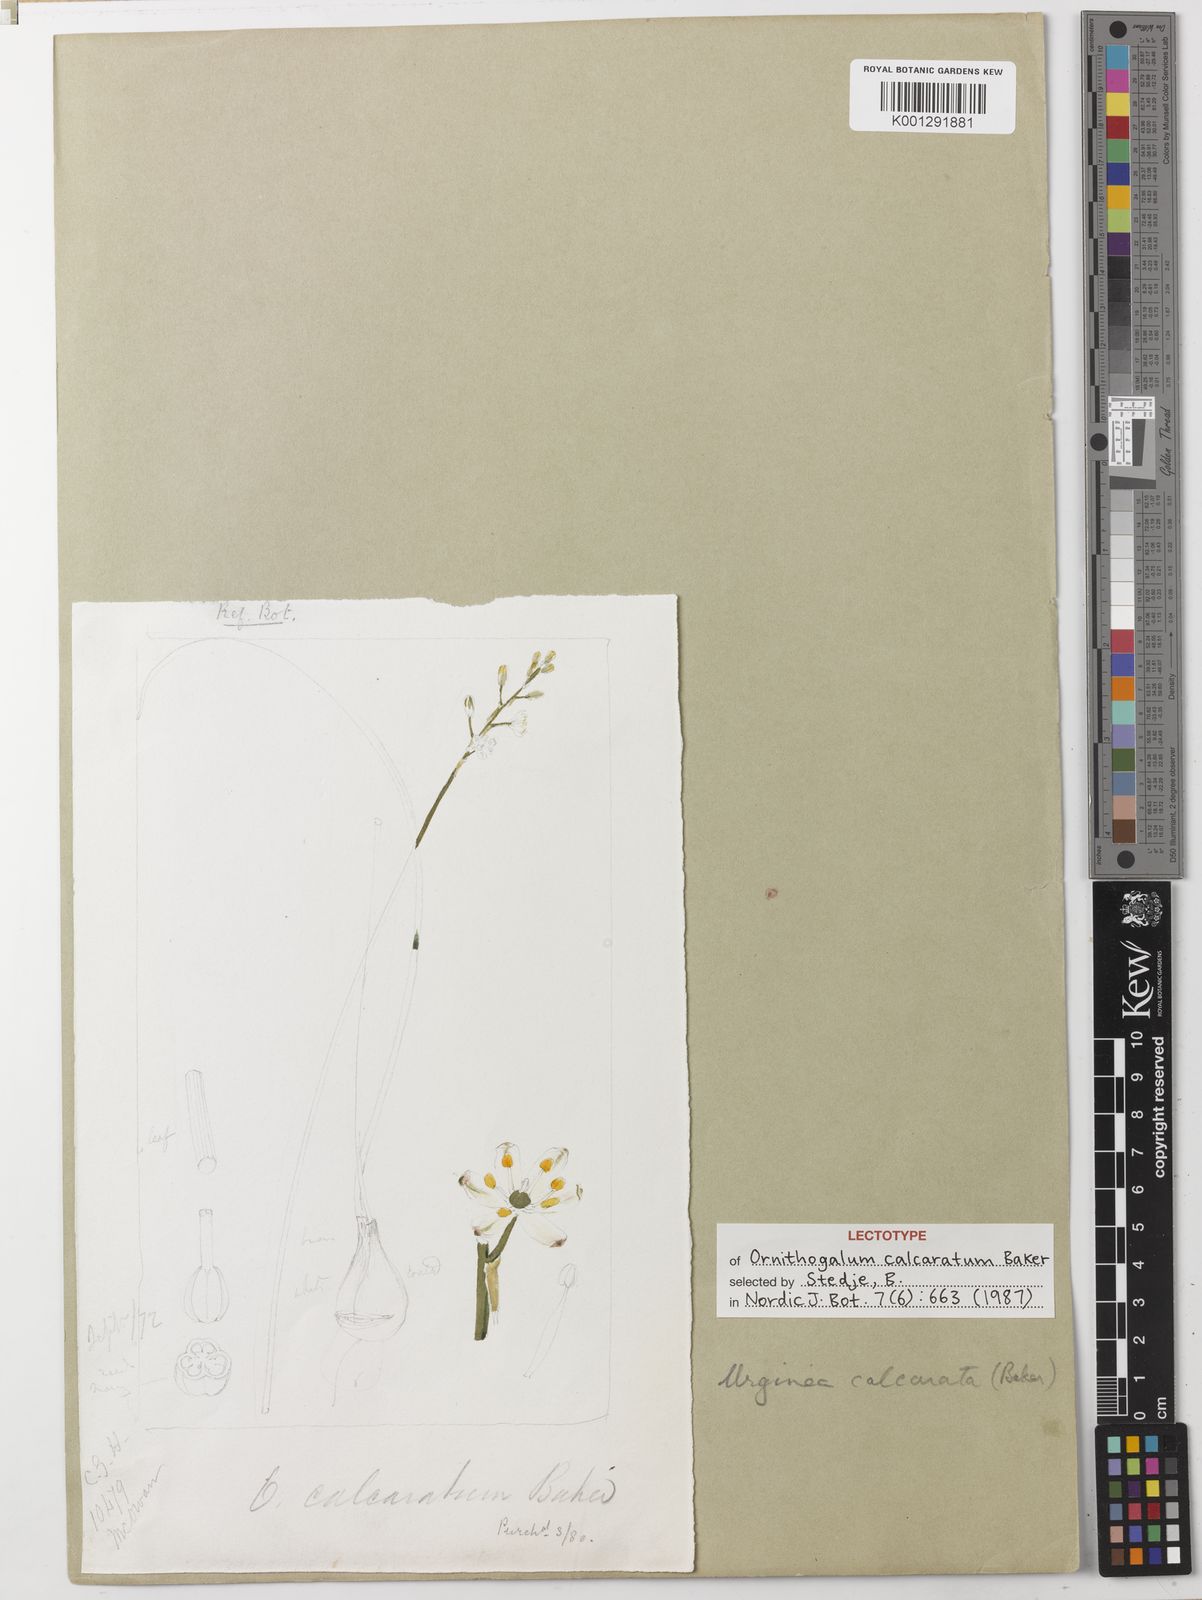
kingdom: Plantae
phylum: Tracheophyta
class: Liliopsida
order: Asparagales
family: Asparagaceae
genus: Drimia
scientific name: Drimia calcarata
